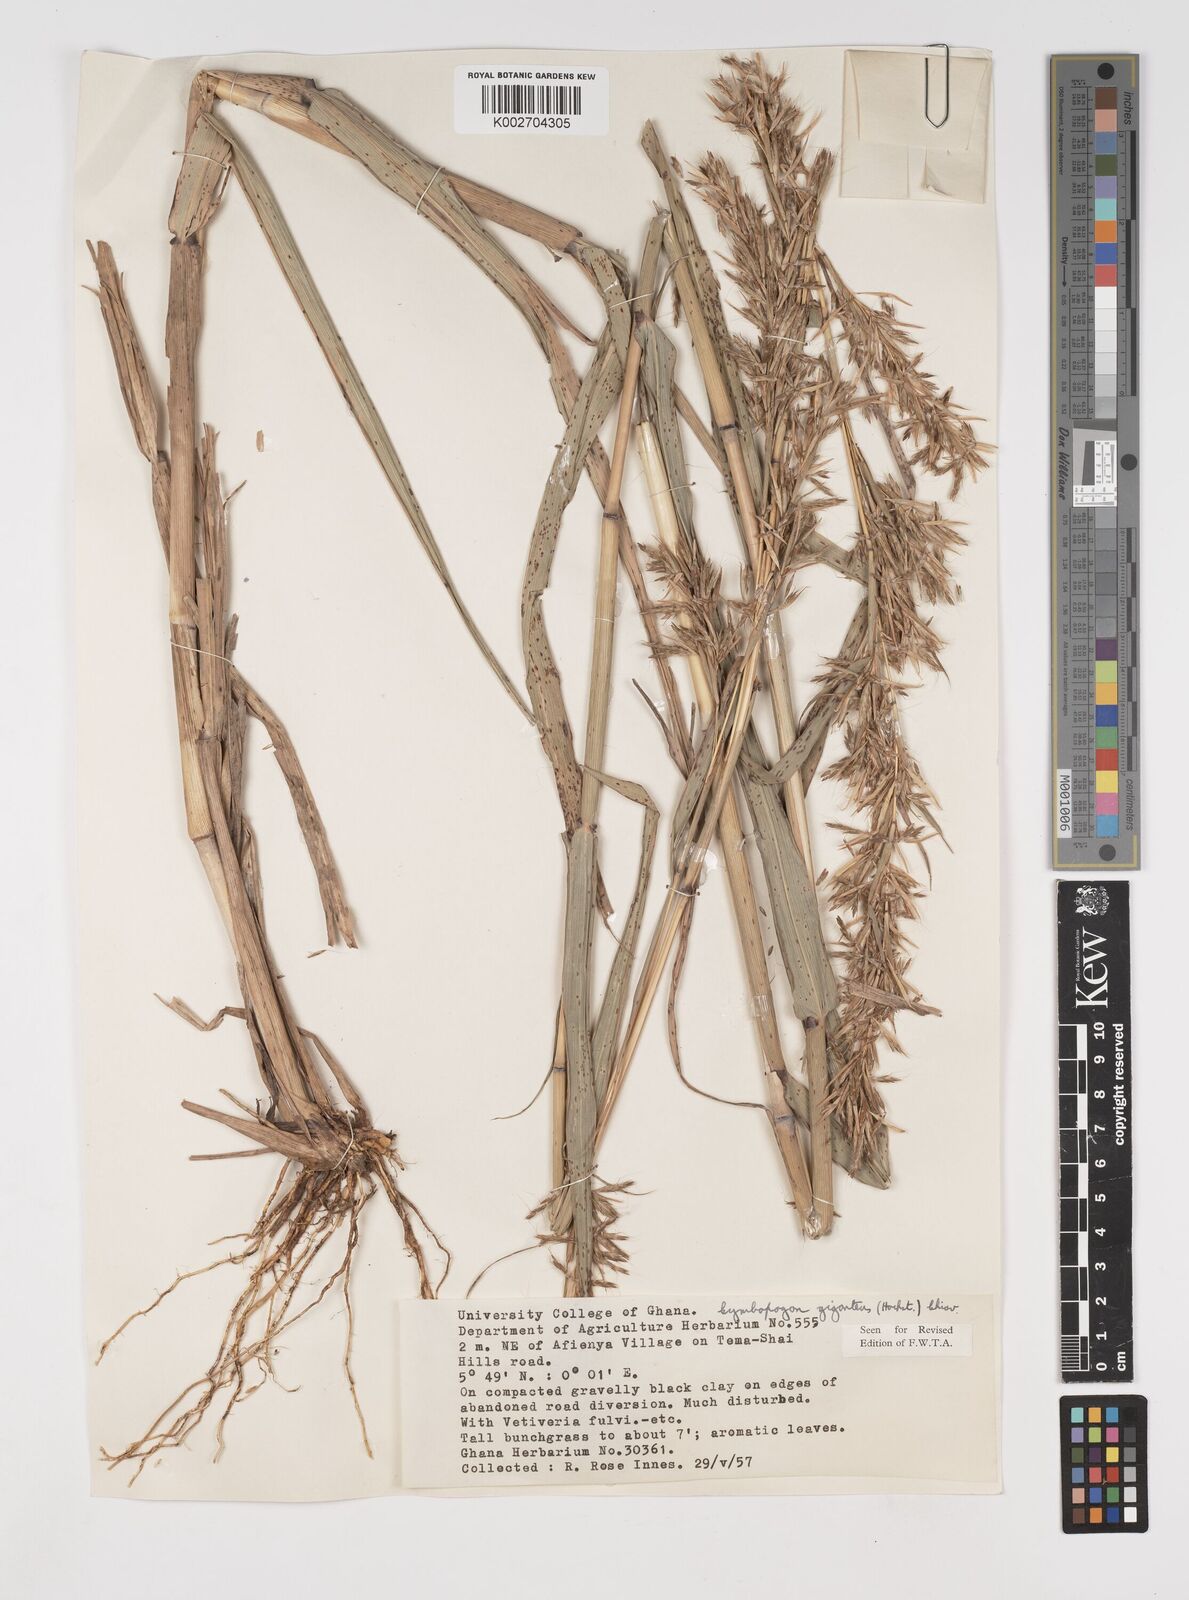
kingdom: Plantae
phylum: Tracheophyta
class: Liliopsida
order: Poales
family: Poaceae
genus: Cymbopogon
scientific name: Cymbopogon giganteus
